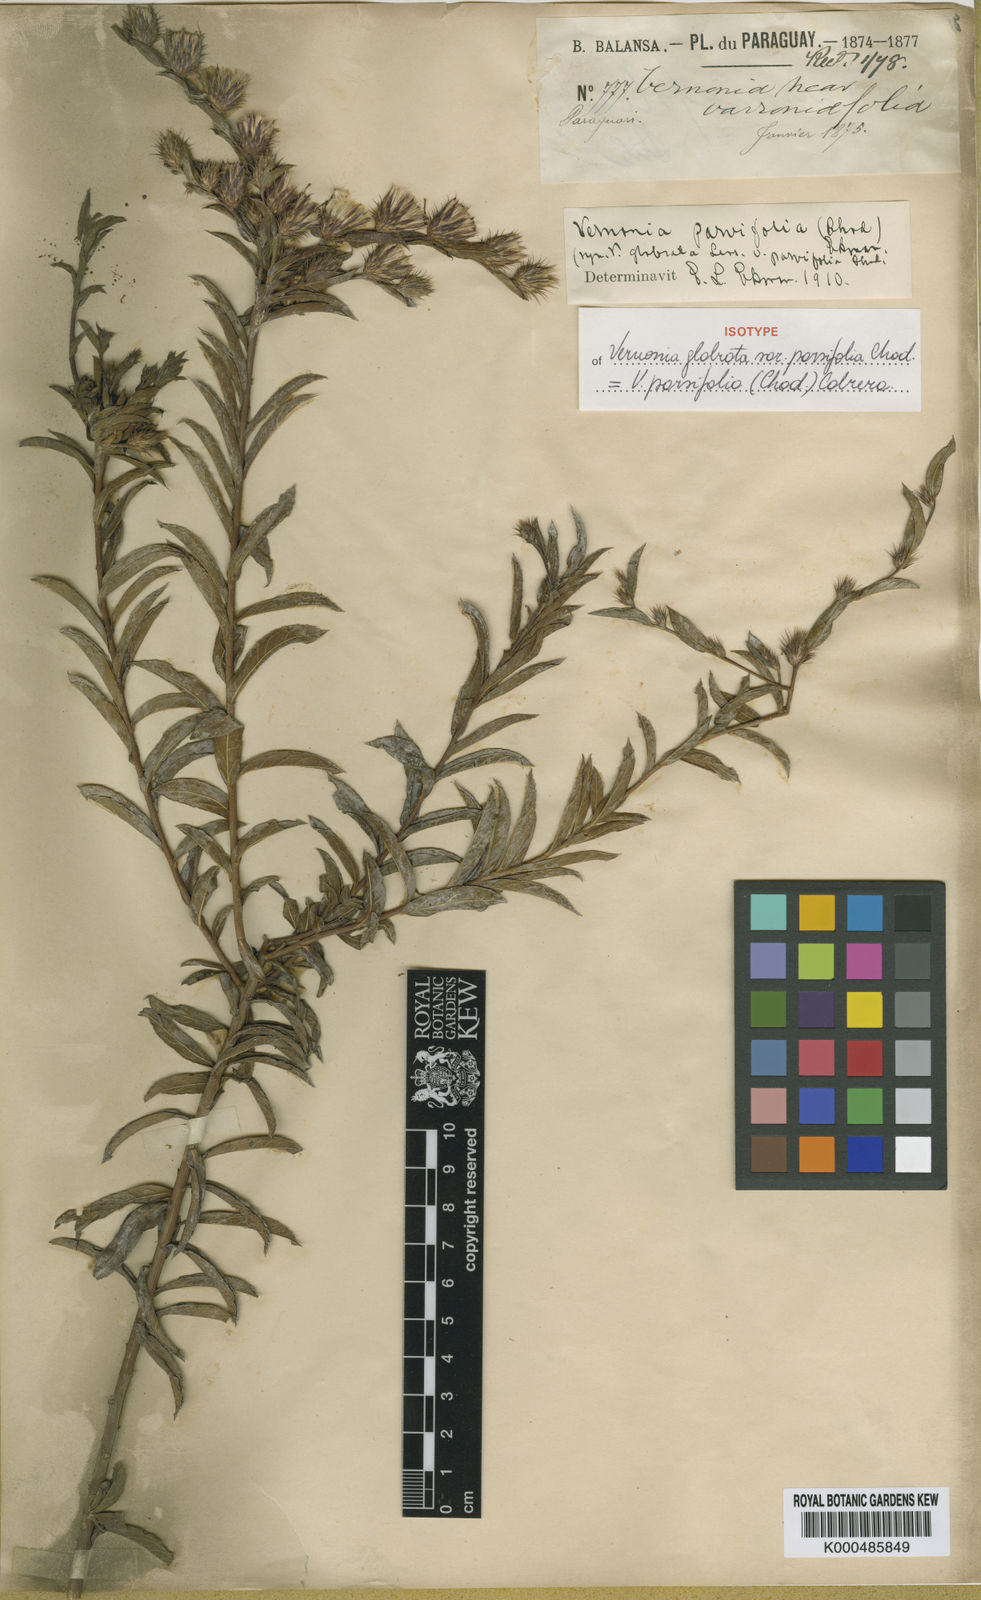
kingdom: Plantae
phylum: Tracheophyta
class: Magnoliopsida
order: Asterales
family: Asteraceae
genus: Lessingianthus
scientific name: Lessingianthus glabratus
